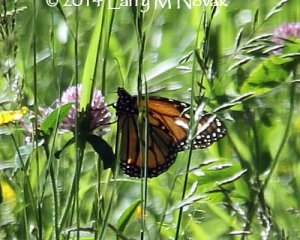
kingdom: Animalia
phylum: Arthropoda
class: Insecta
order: Lepidoptera
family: Nymphalidae
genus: Danaus
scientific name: Danaus plexippus
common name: Monarch
